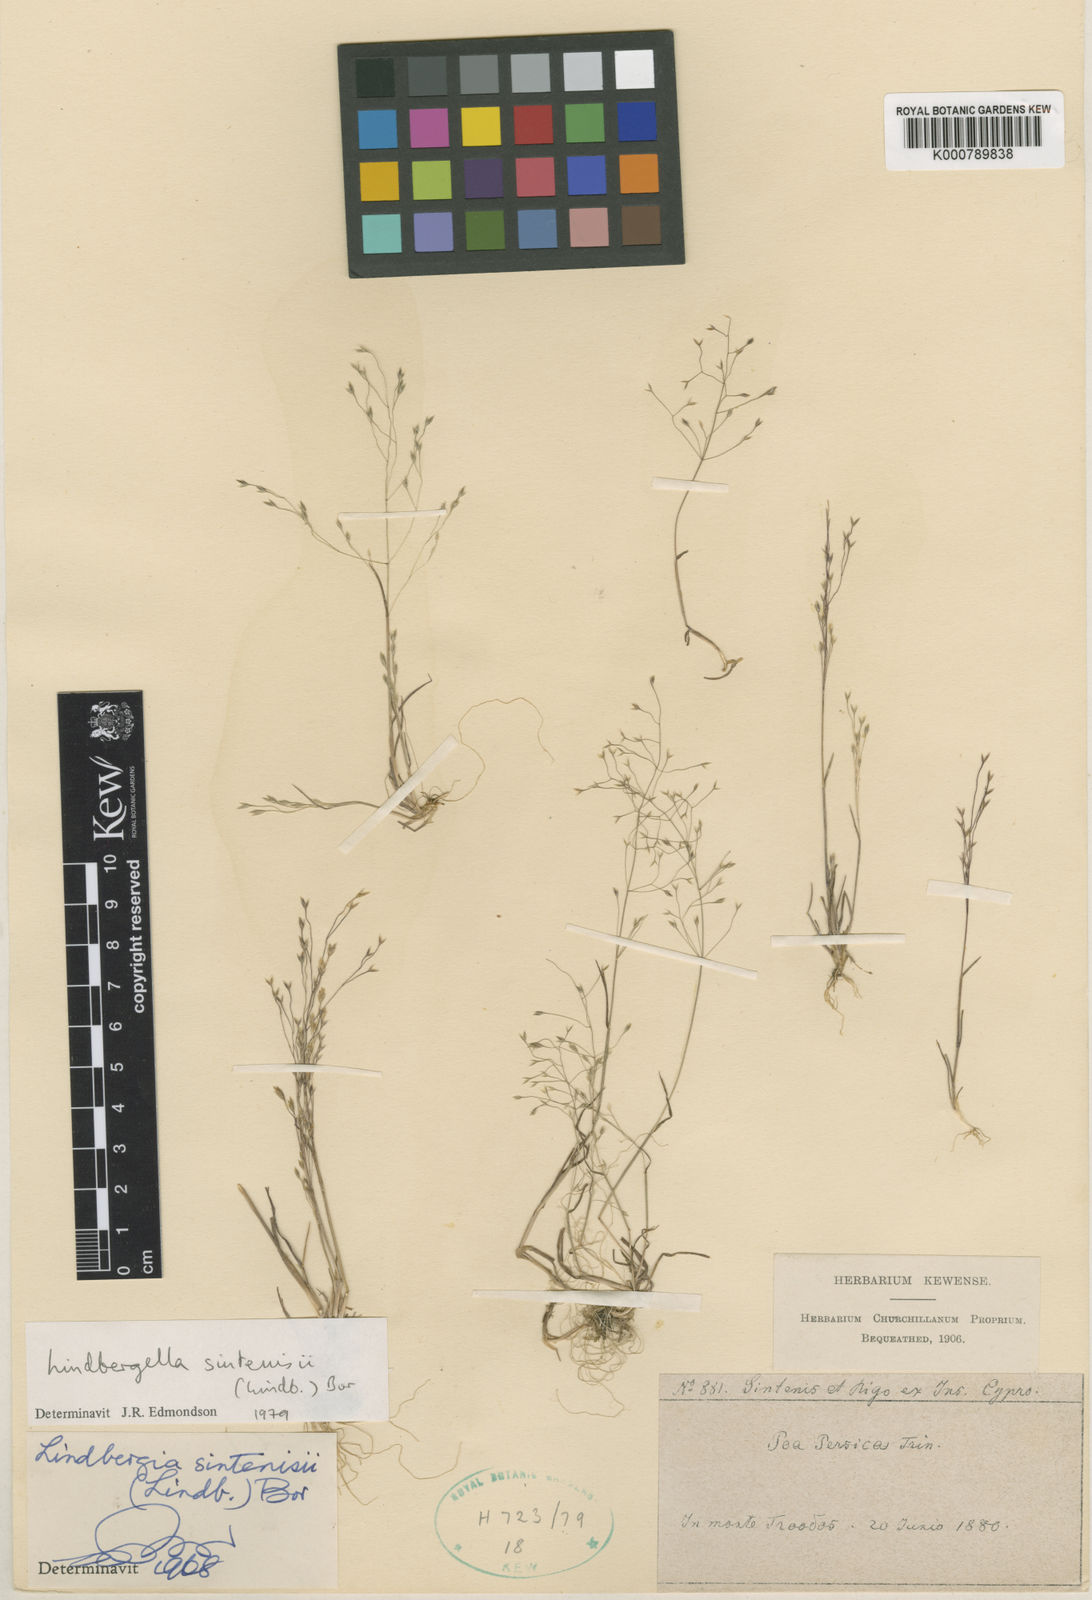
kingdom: Plantae
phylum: Tracheophyta
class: Liliopsida
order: Poales
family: Poaceae
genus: Poa
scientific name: Poa sintenisii
